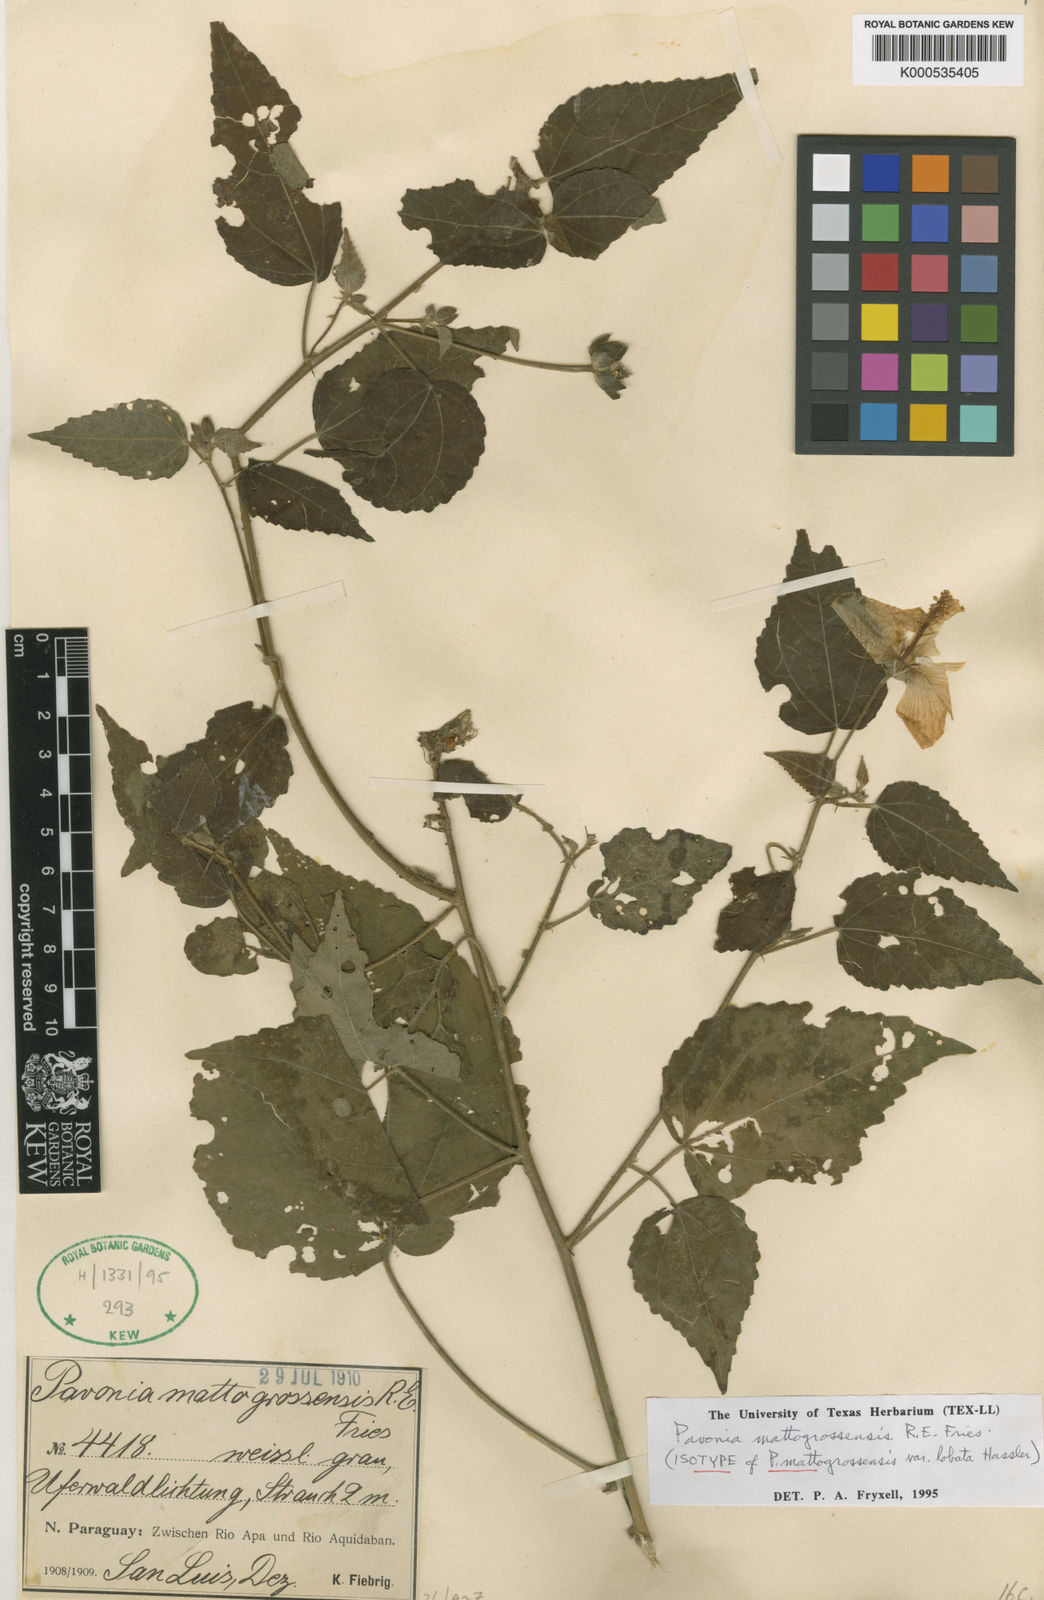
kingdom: Plantae
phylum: Tracheophyta
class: Magnoliopsida
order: Malvales
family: Malvaceae
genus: Pavonia
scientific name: Pavonia mattogrossensis
